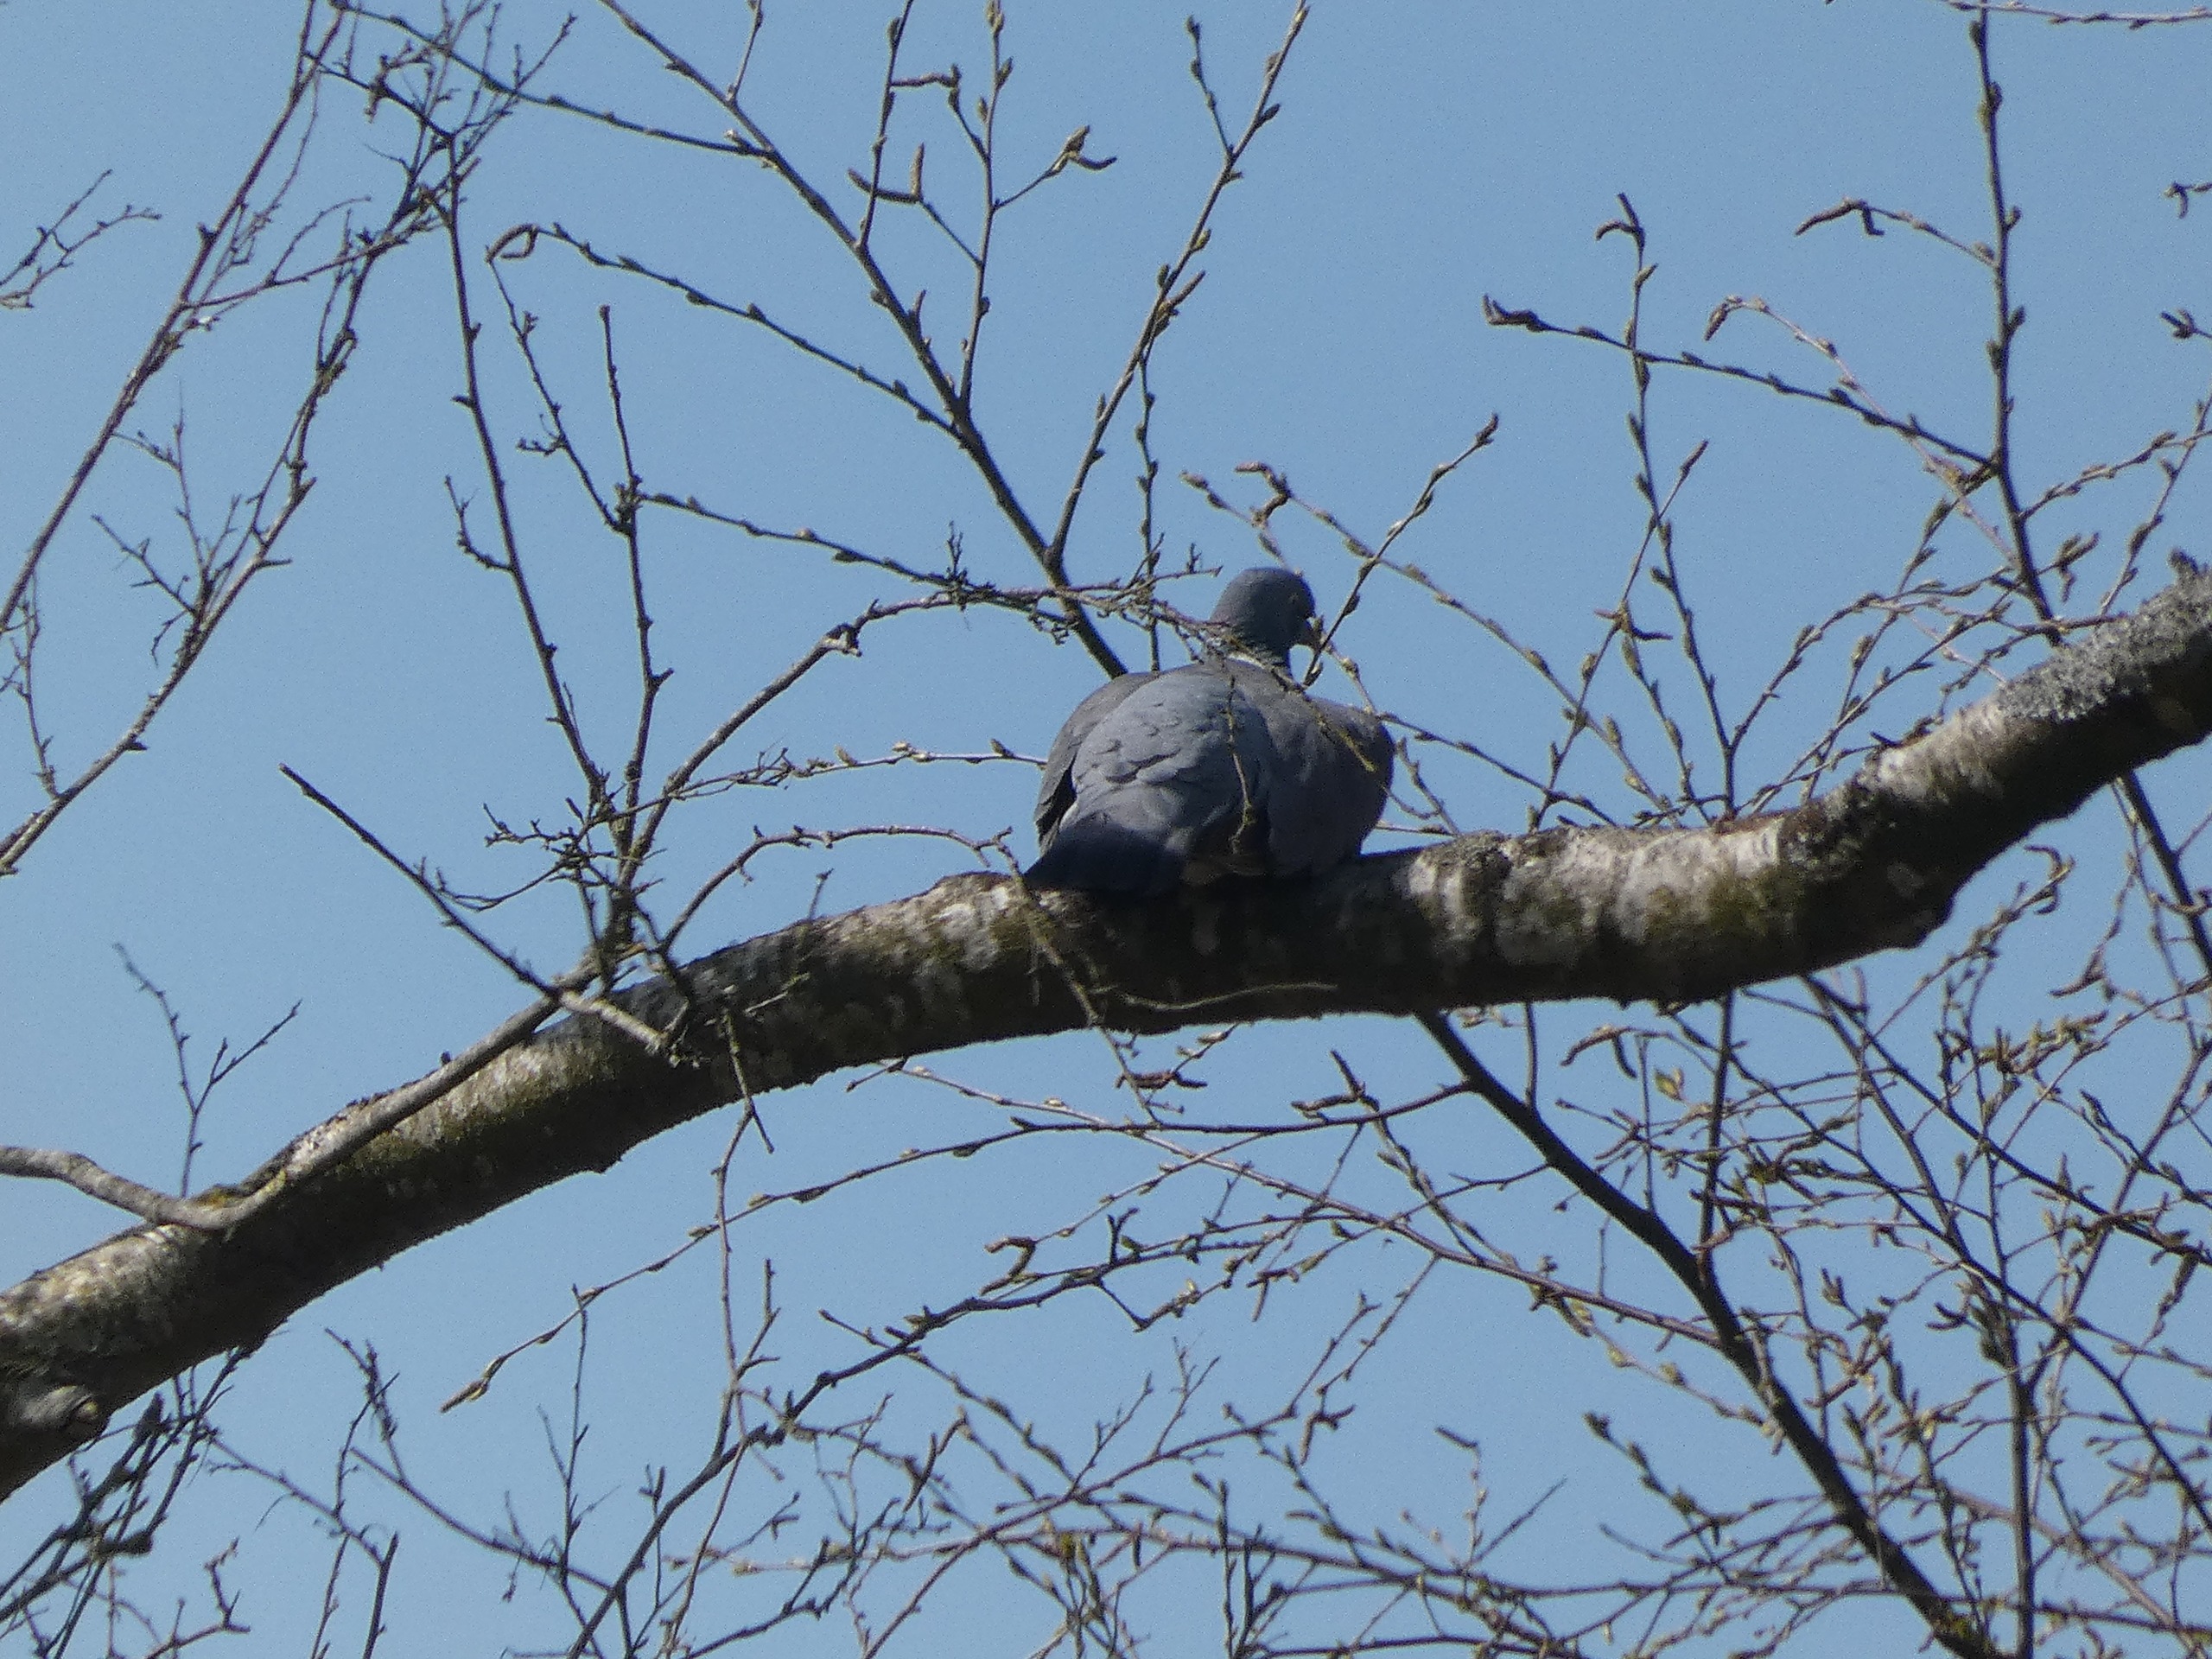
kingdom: Animalia
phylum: Chordata
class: Aves
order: Columbiformes
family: Columbidae
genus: Columba
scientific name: Columba palumbus
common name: Ringdue
